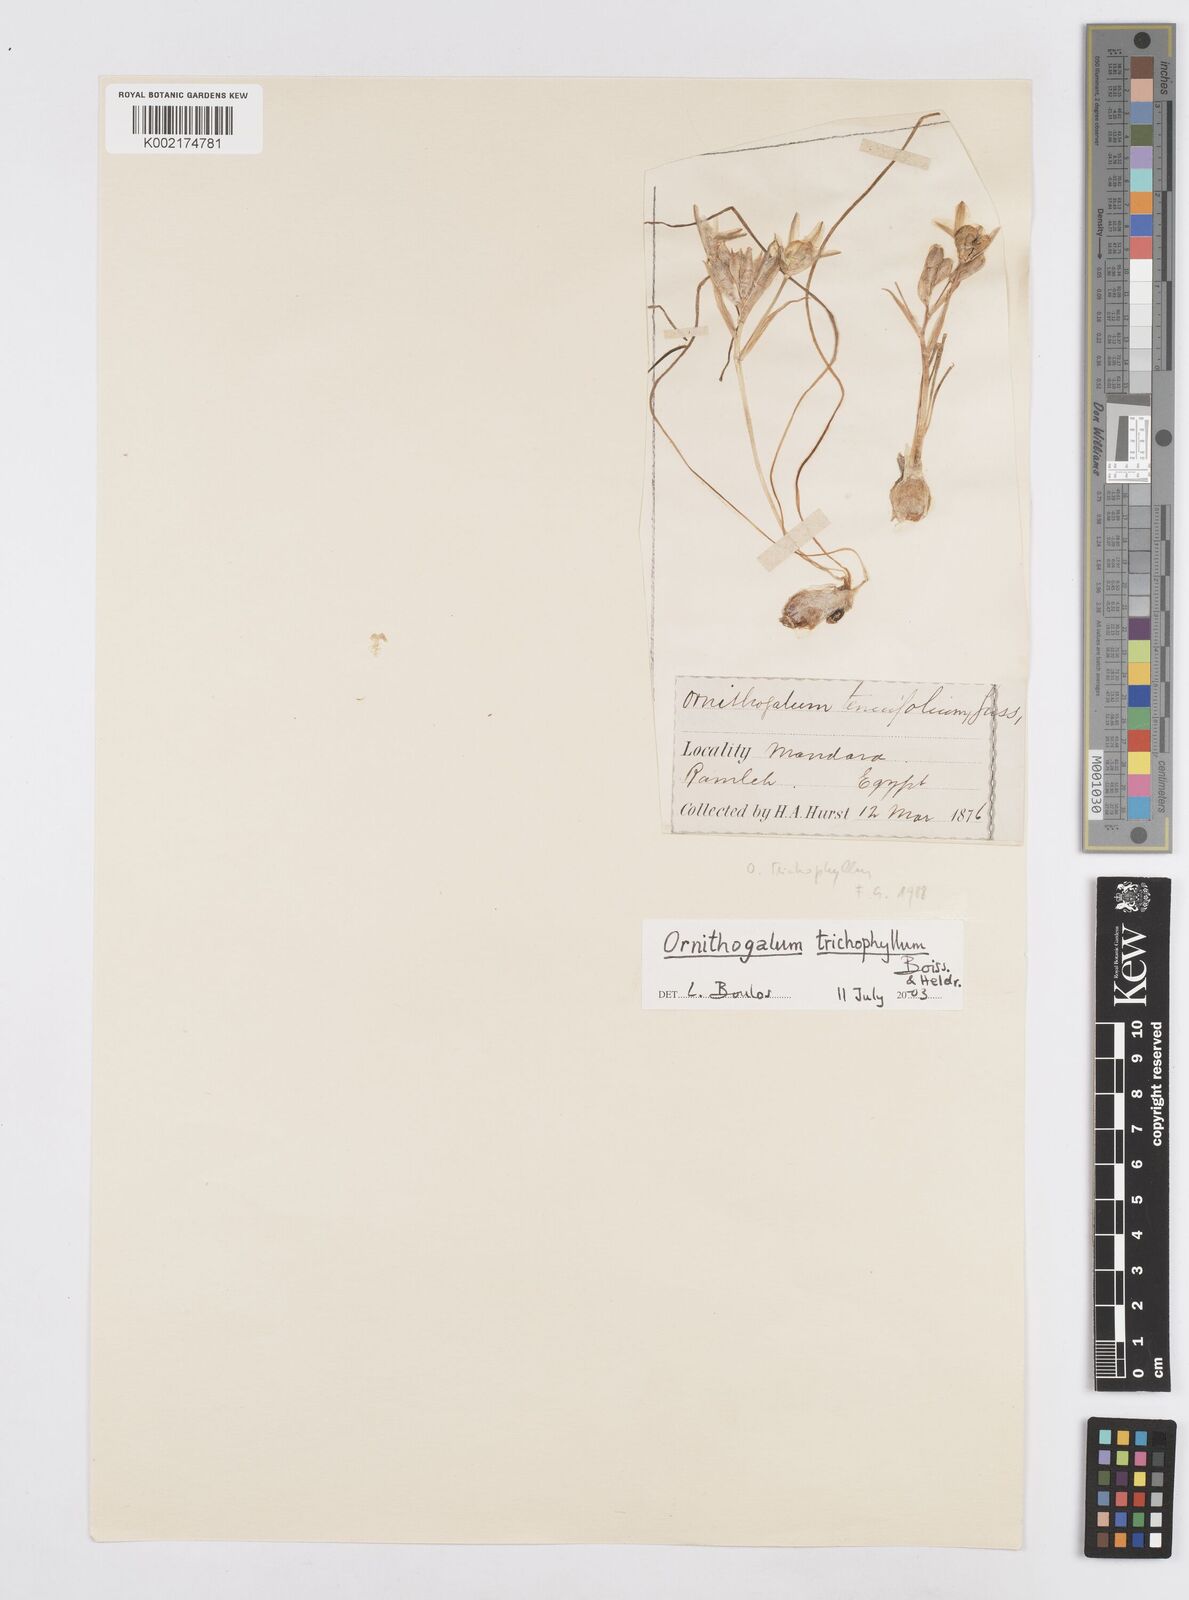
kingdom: Plantae
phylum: Tracheophyta
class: Liliopsida
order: Asparagales
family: Asparagaceae
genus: Ornithogalum
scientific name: Ornithogalum trichophyllum
